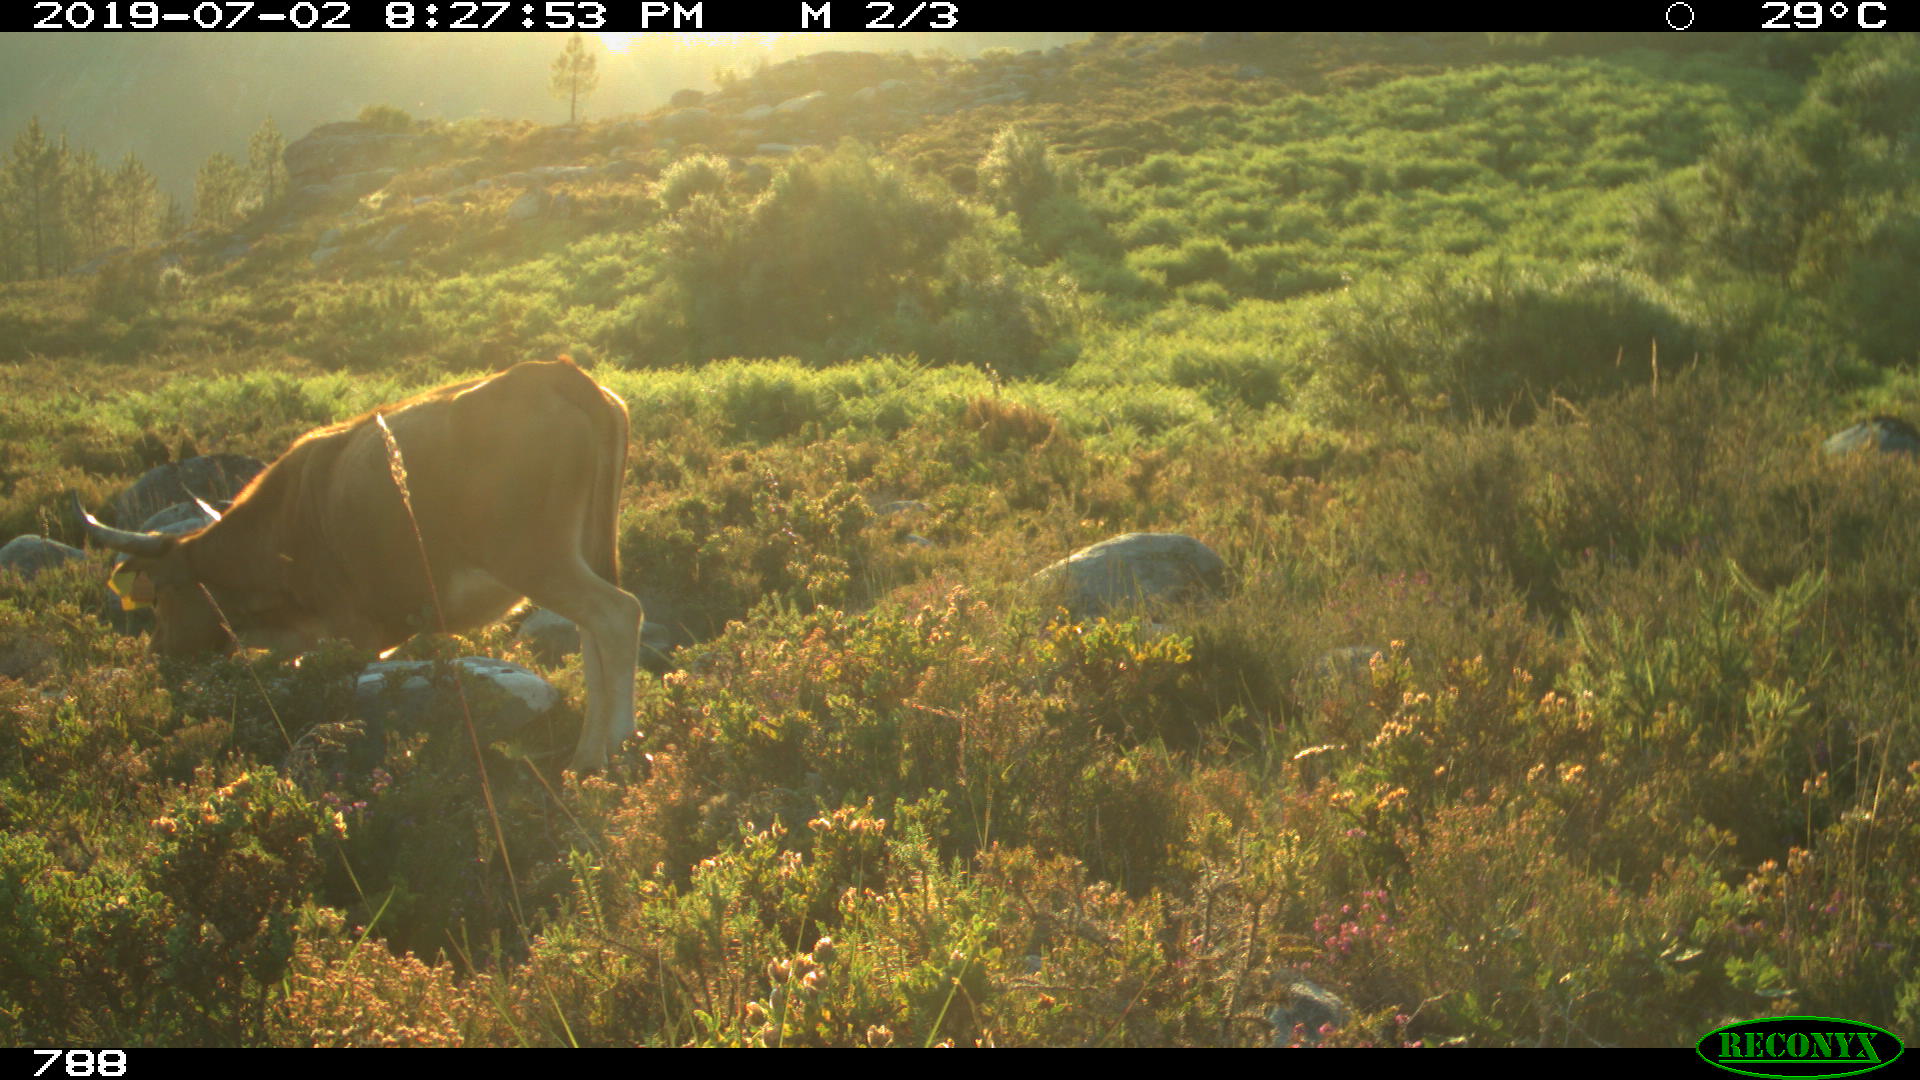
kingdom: Animalia
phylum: Chordata
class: Mammalia
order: Artiodactyla
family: Bovidae
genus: Bos
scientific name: Bos taurus
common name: Domesticated cattle
